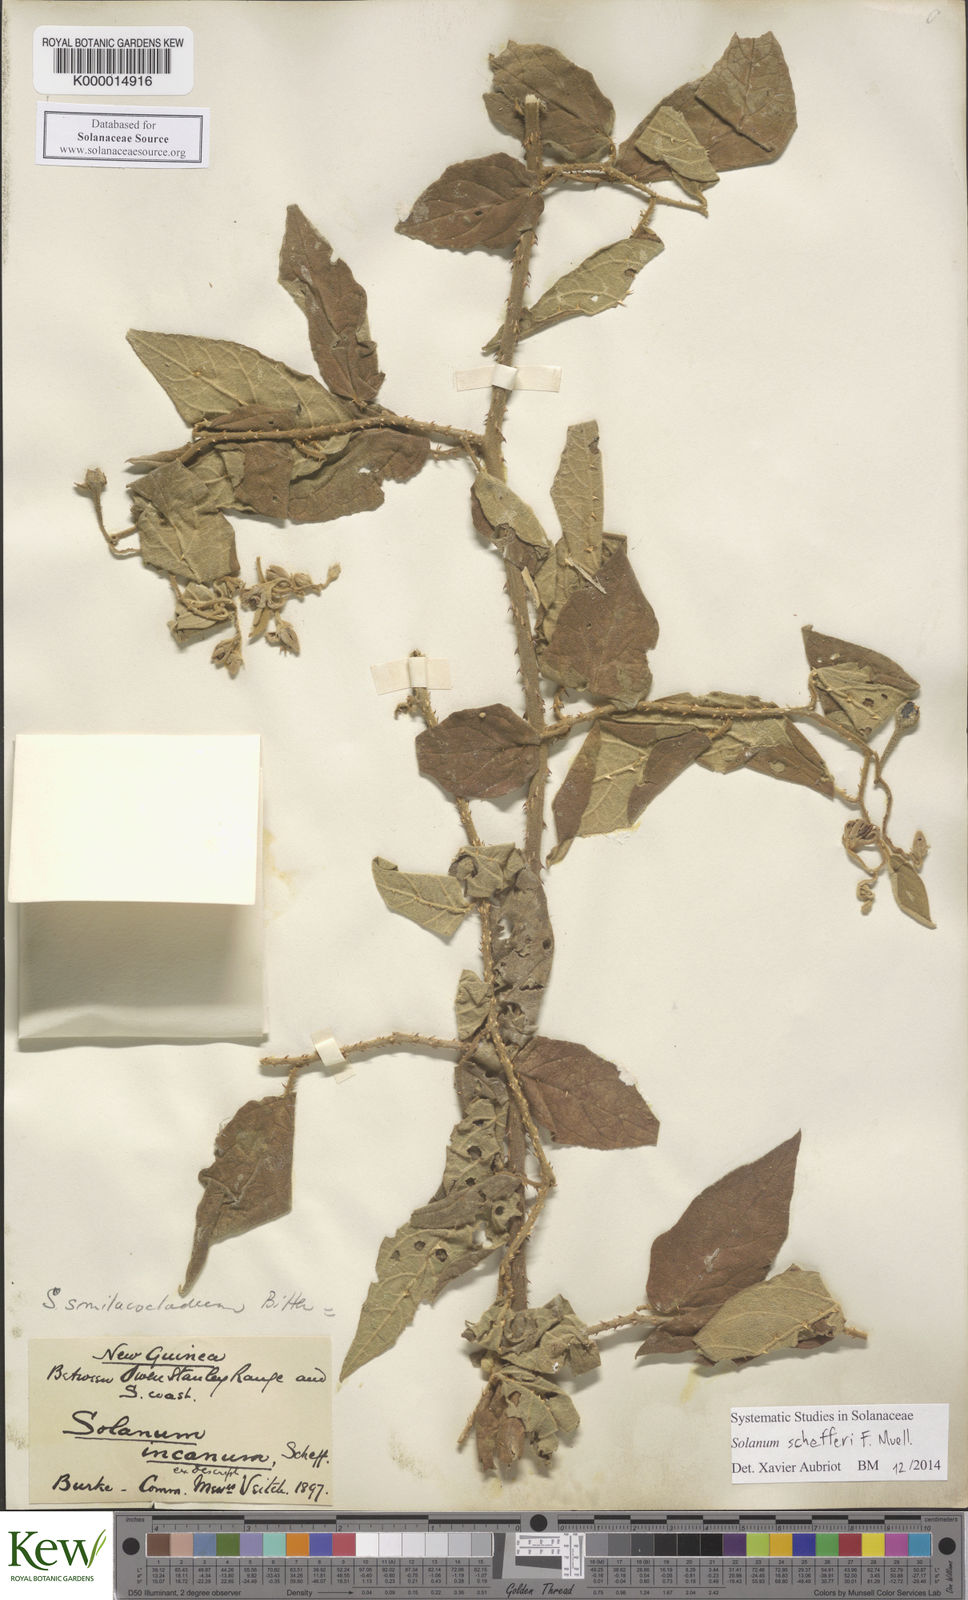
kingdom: Plantae
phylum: Tracheophyta
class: Magnoliopsida
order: Solanales
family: Solanaceae
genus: Solanum
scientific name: Solanum schefferi
